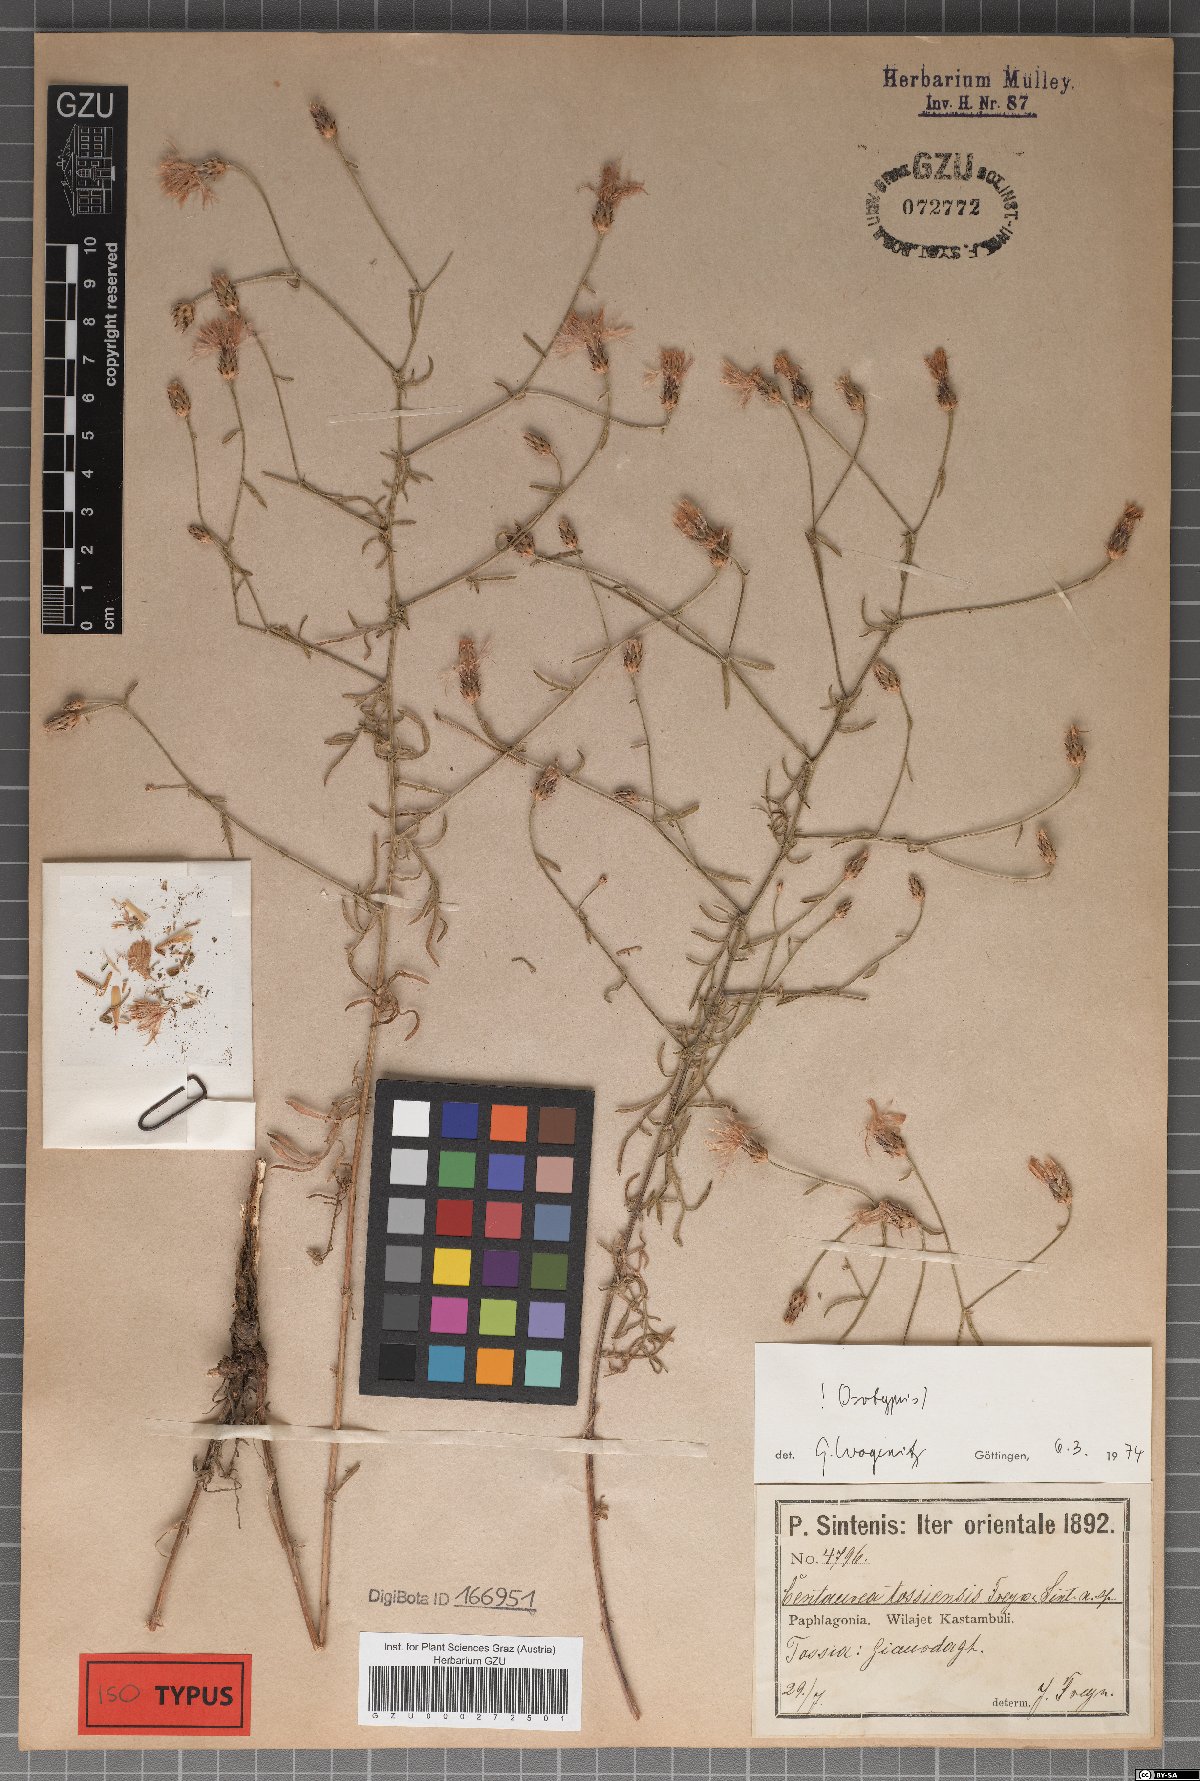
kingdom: Plantae
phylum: Tracheophyta
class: Magnoliopsida
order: Asterales
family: Asteraceae
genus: Centaurea
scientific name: Centaurea tossiensis
